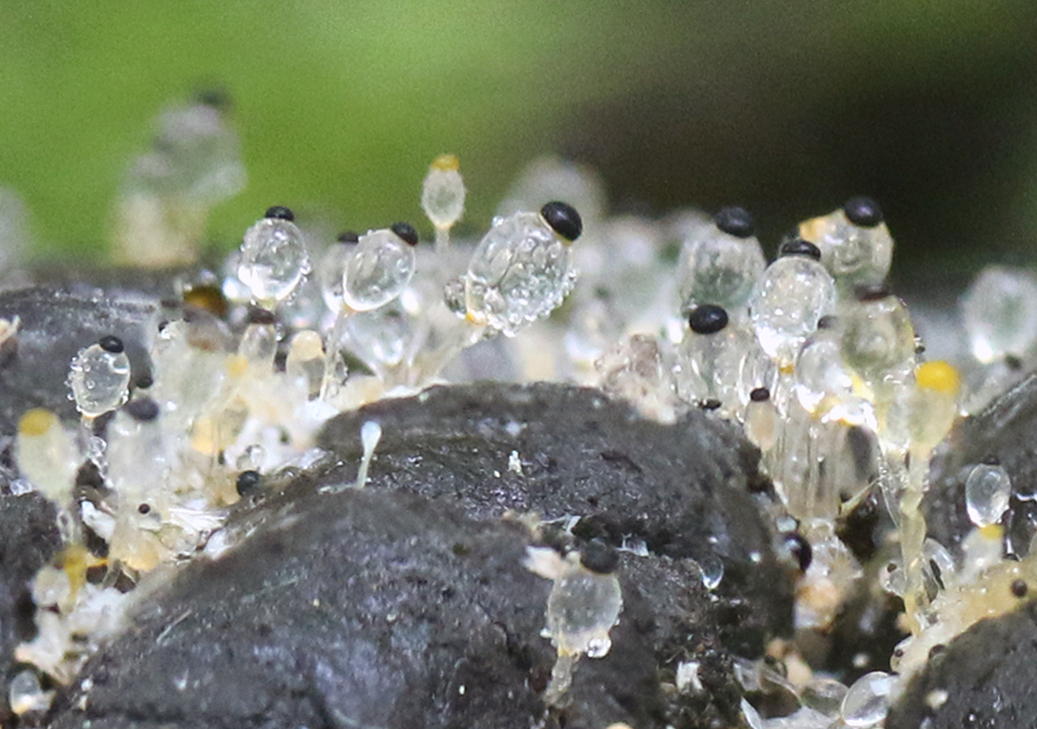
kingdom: Fungi
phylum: Mucoromycota
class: Mucoromycetes
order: Mucorales
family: Pilobolaceae
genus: Pilobolus
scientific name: Pilobolus crystallinus
